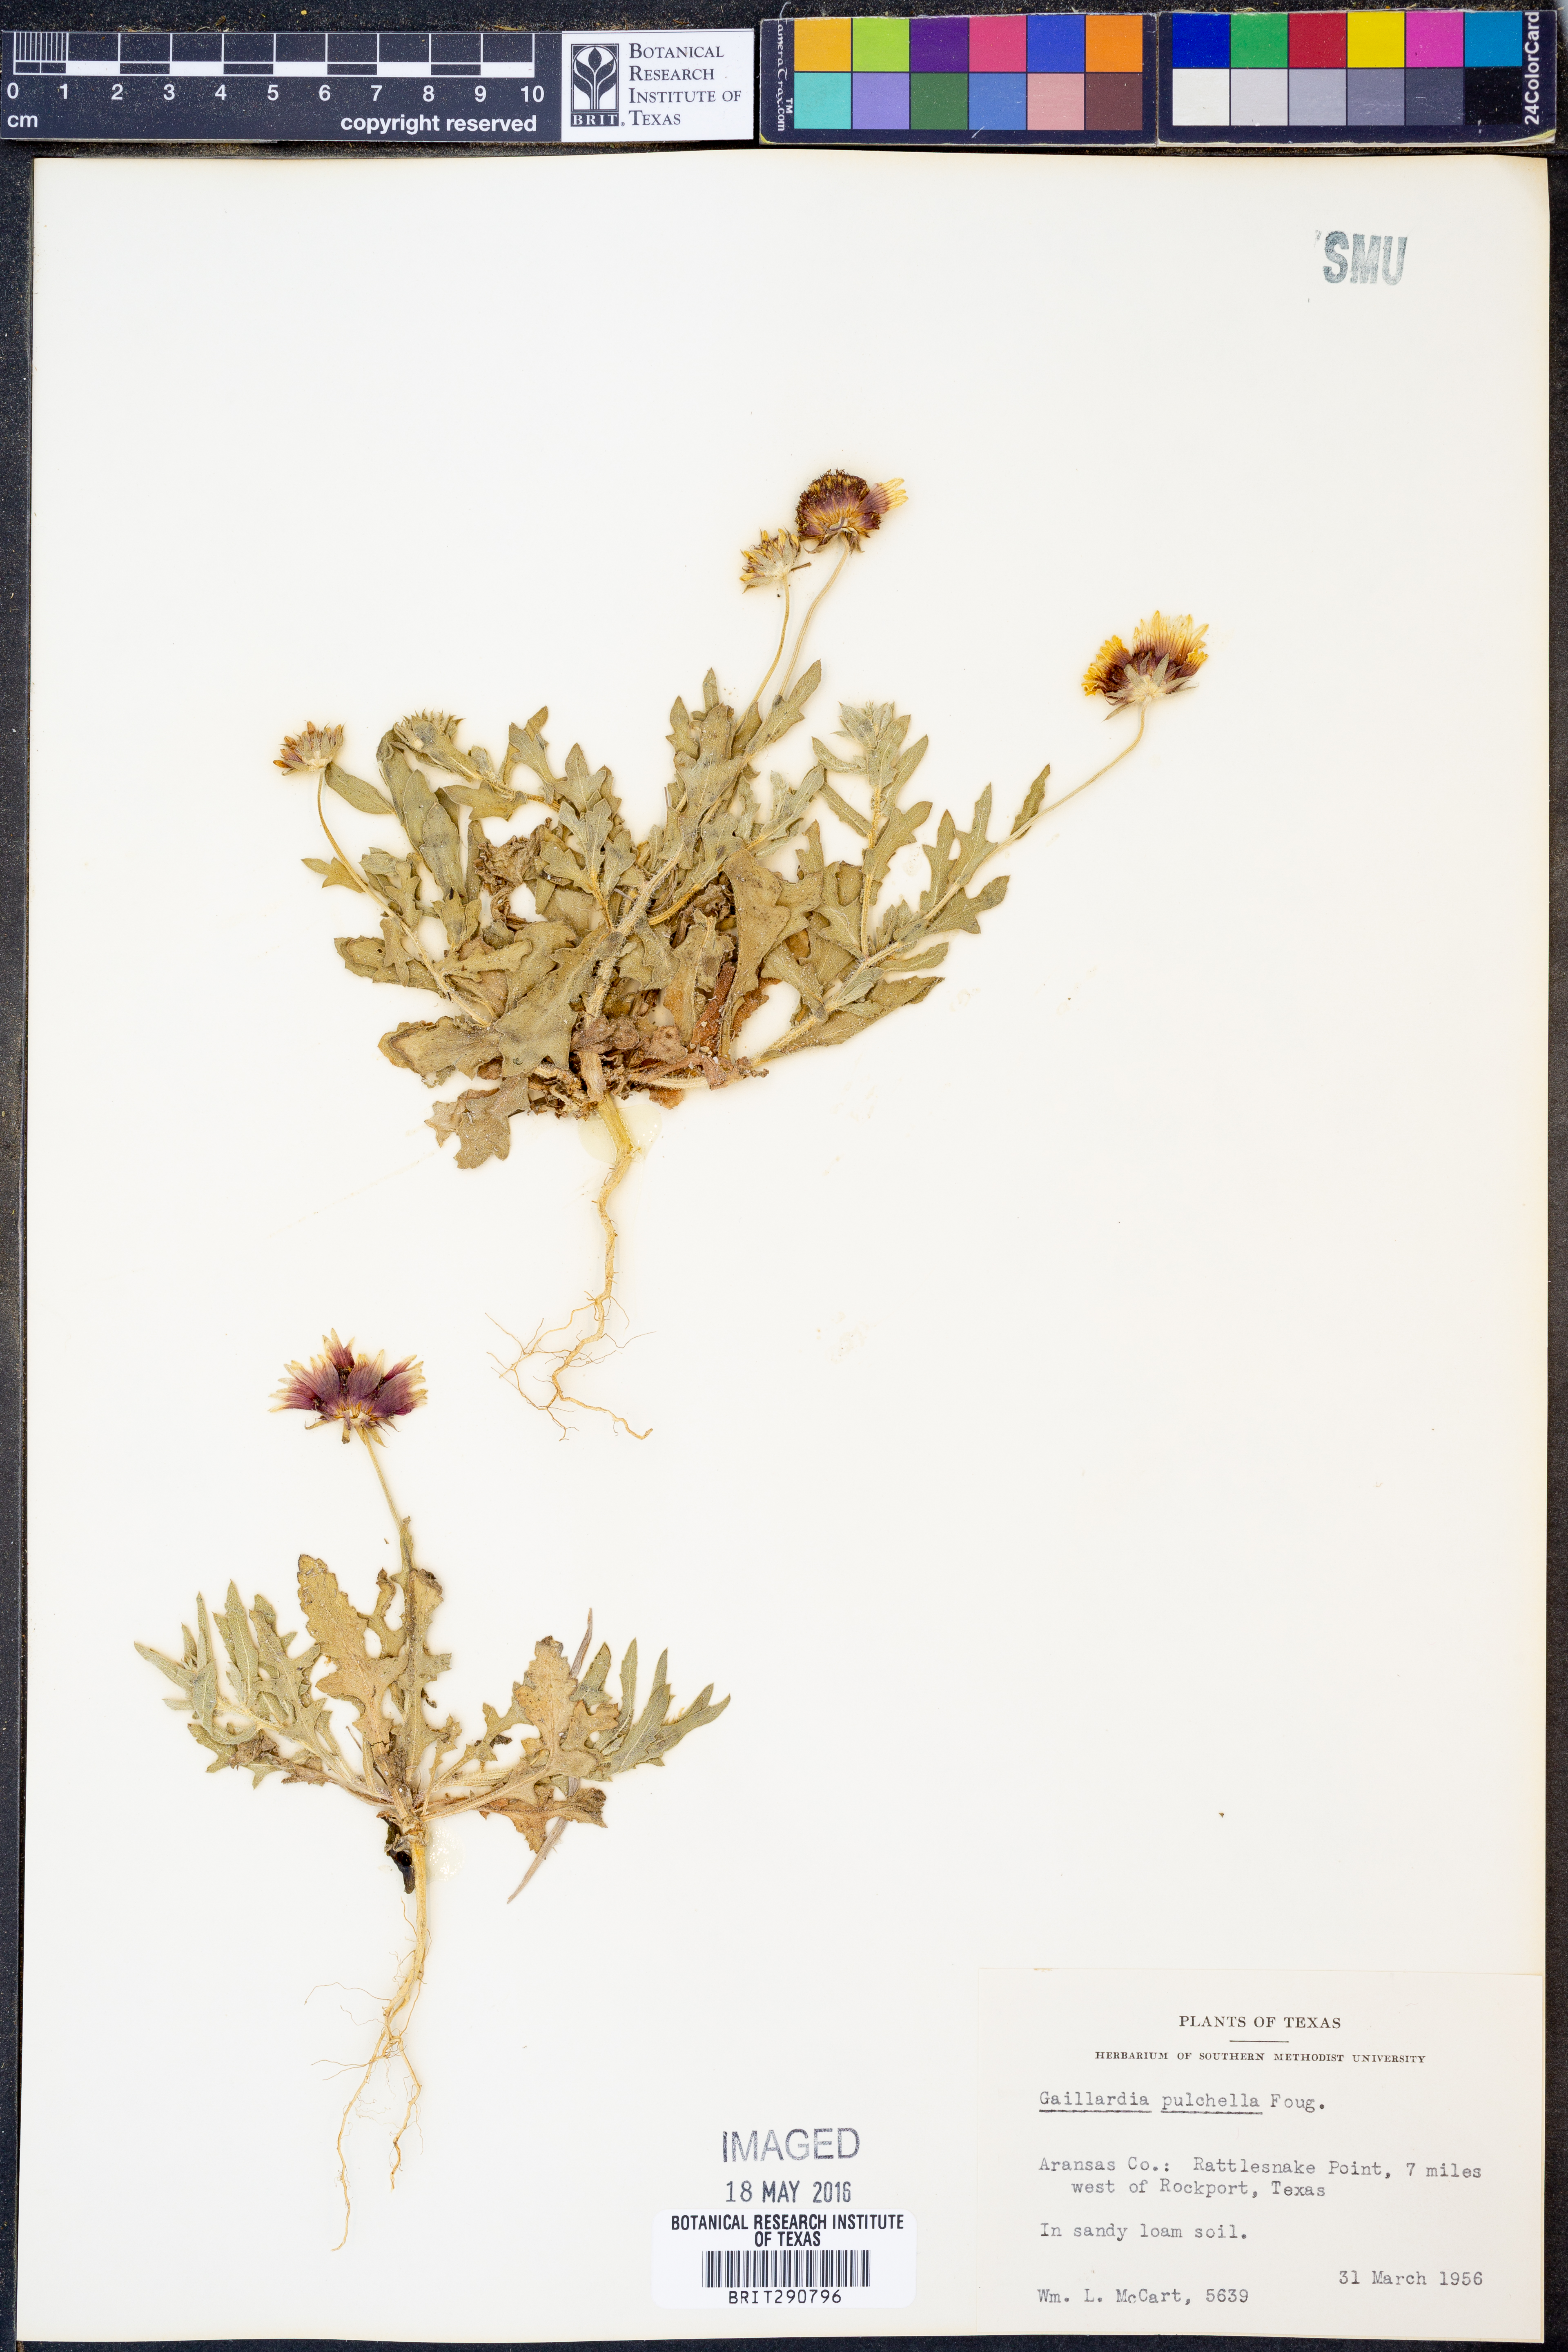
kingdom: Plantae
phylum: Tracheophyta
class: Magnoliopsida
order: Asterales
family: Asteraceae
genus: Gaillardia
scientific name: Gaillardia pulchella
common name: Firewheel
